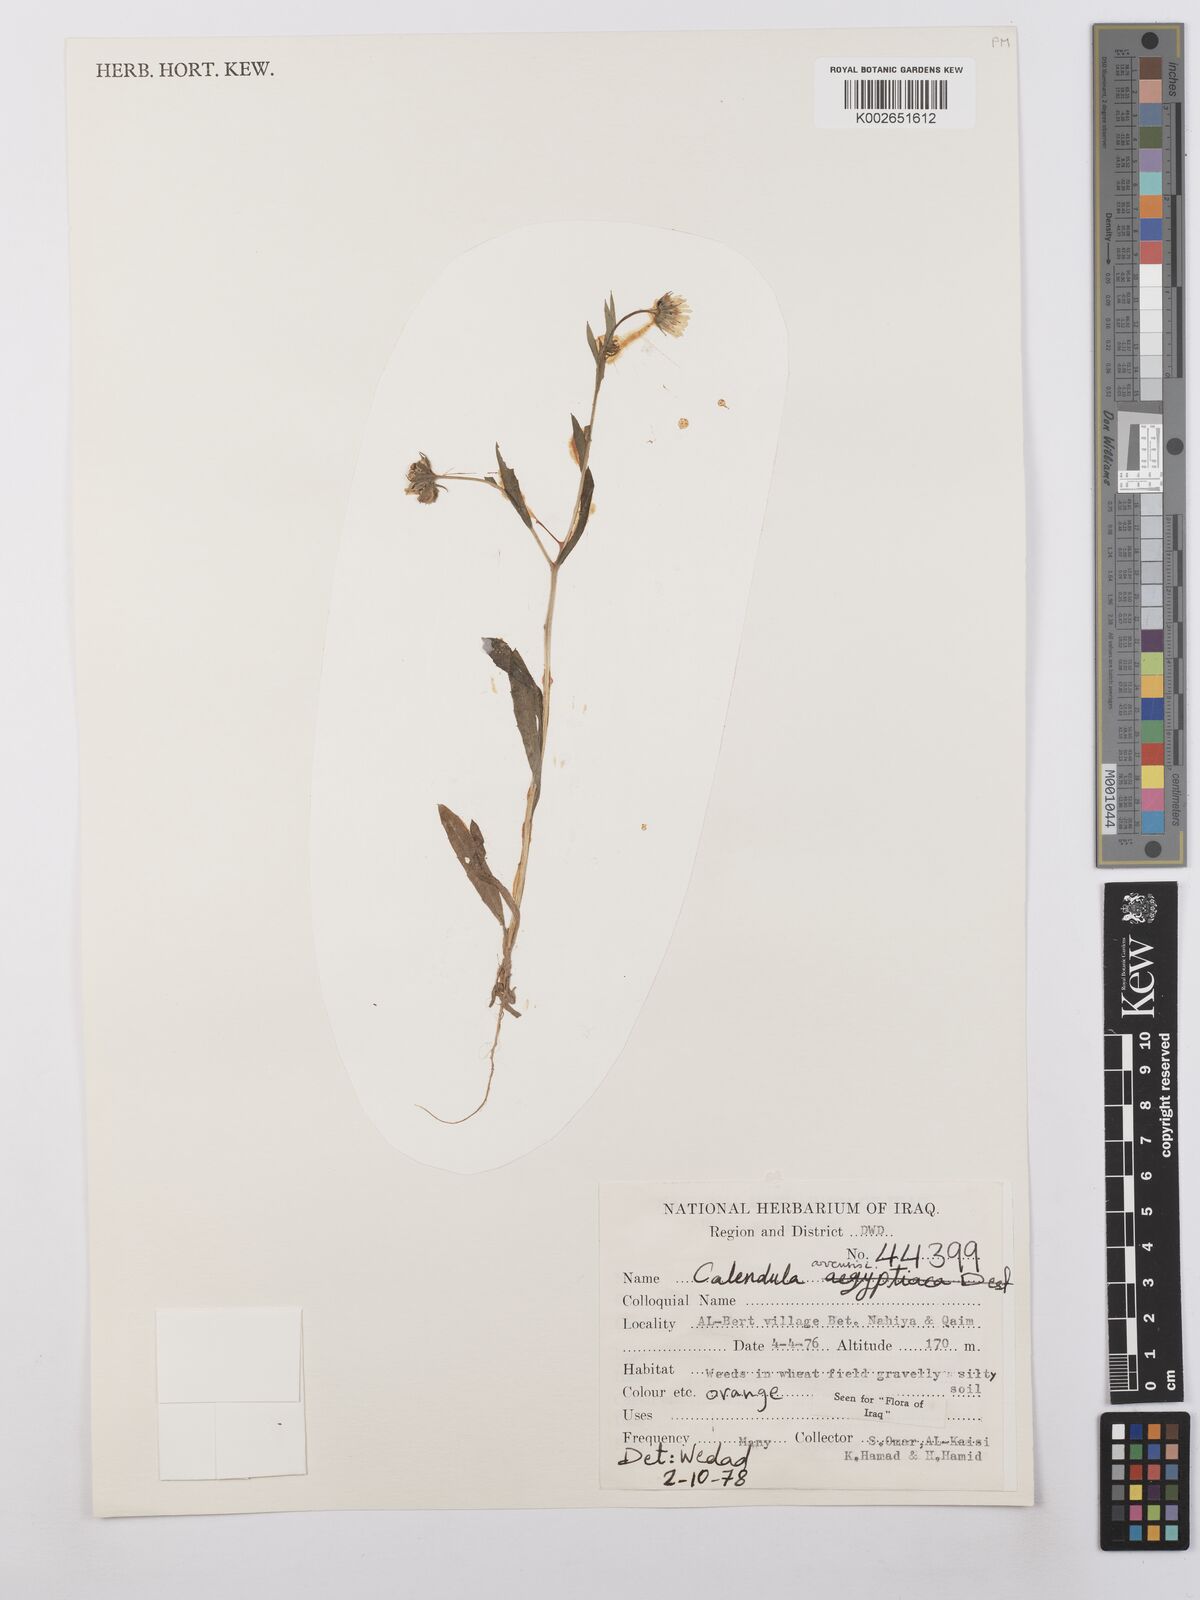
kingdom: Plantae
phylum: Tracheophyta
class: Magnoliopsida
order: Asterales
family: Asteraceae
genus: Calendula
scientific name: Calendula arvensis
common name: Field marigold
